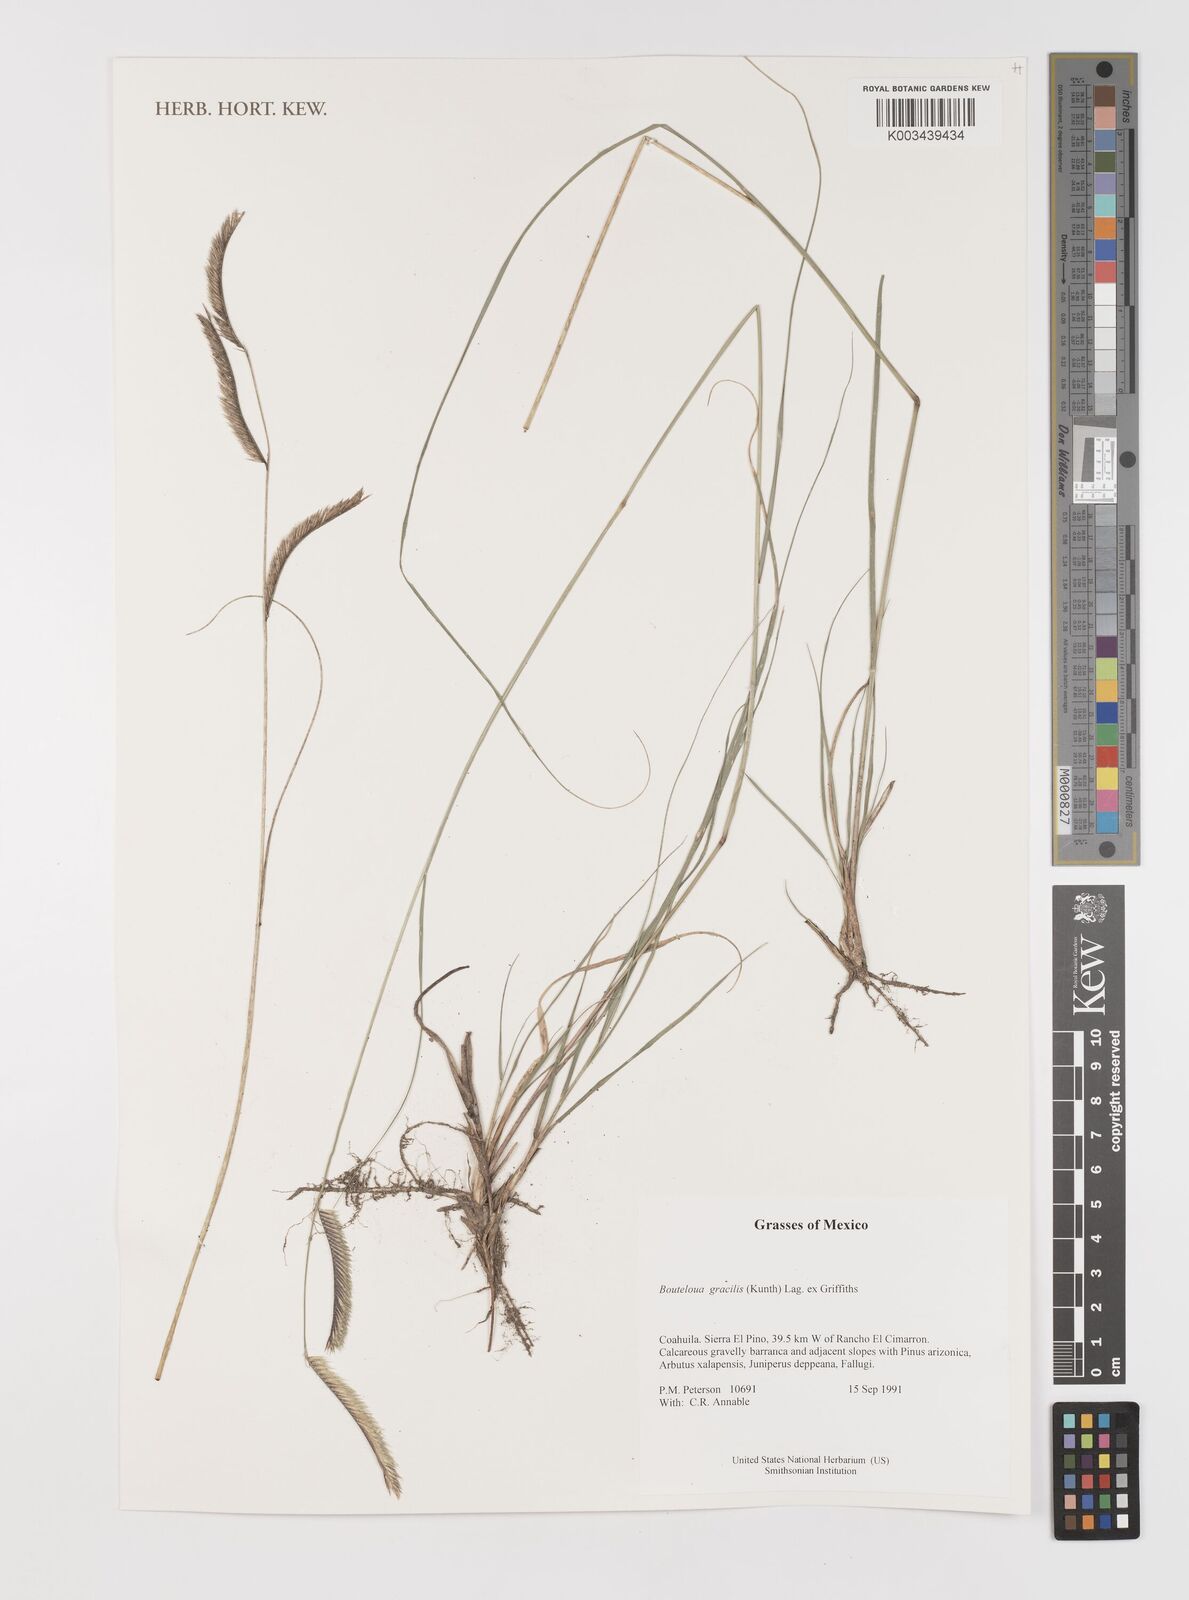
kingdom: Plantae
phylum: Tracheophyta
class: Liliopsida
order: Poales
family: Poaceae
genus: Bouteloua
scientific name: Bouteloua aristidoides
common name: Needle grama
